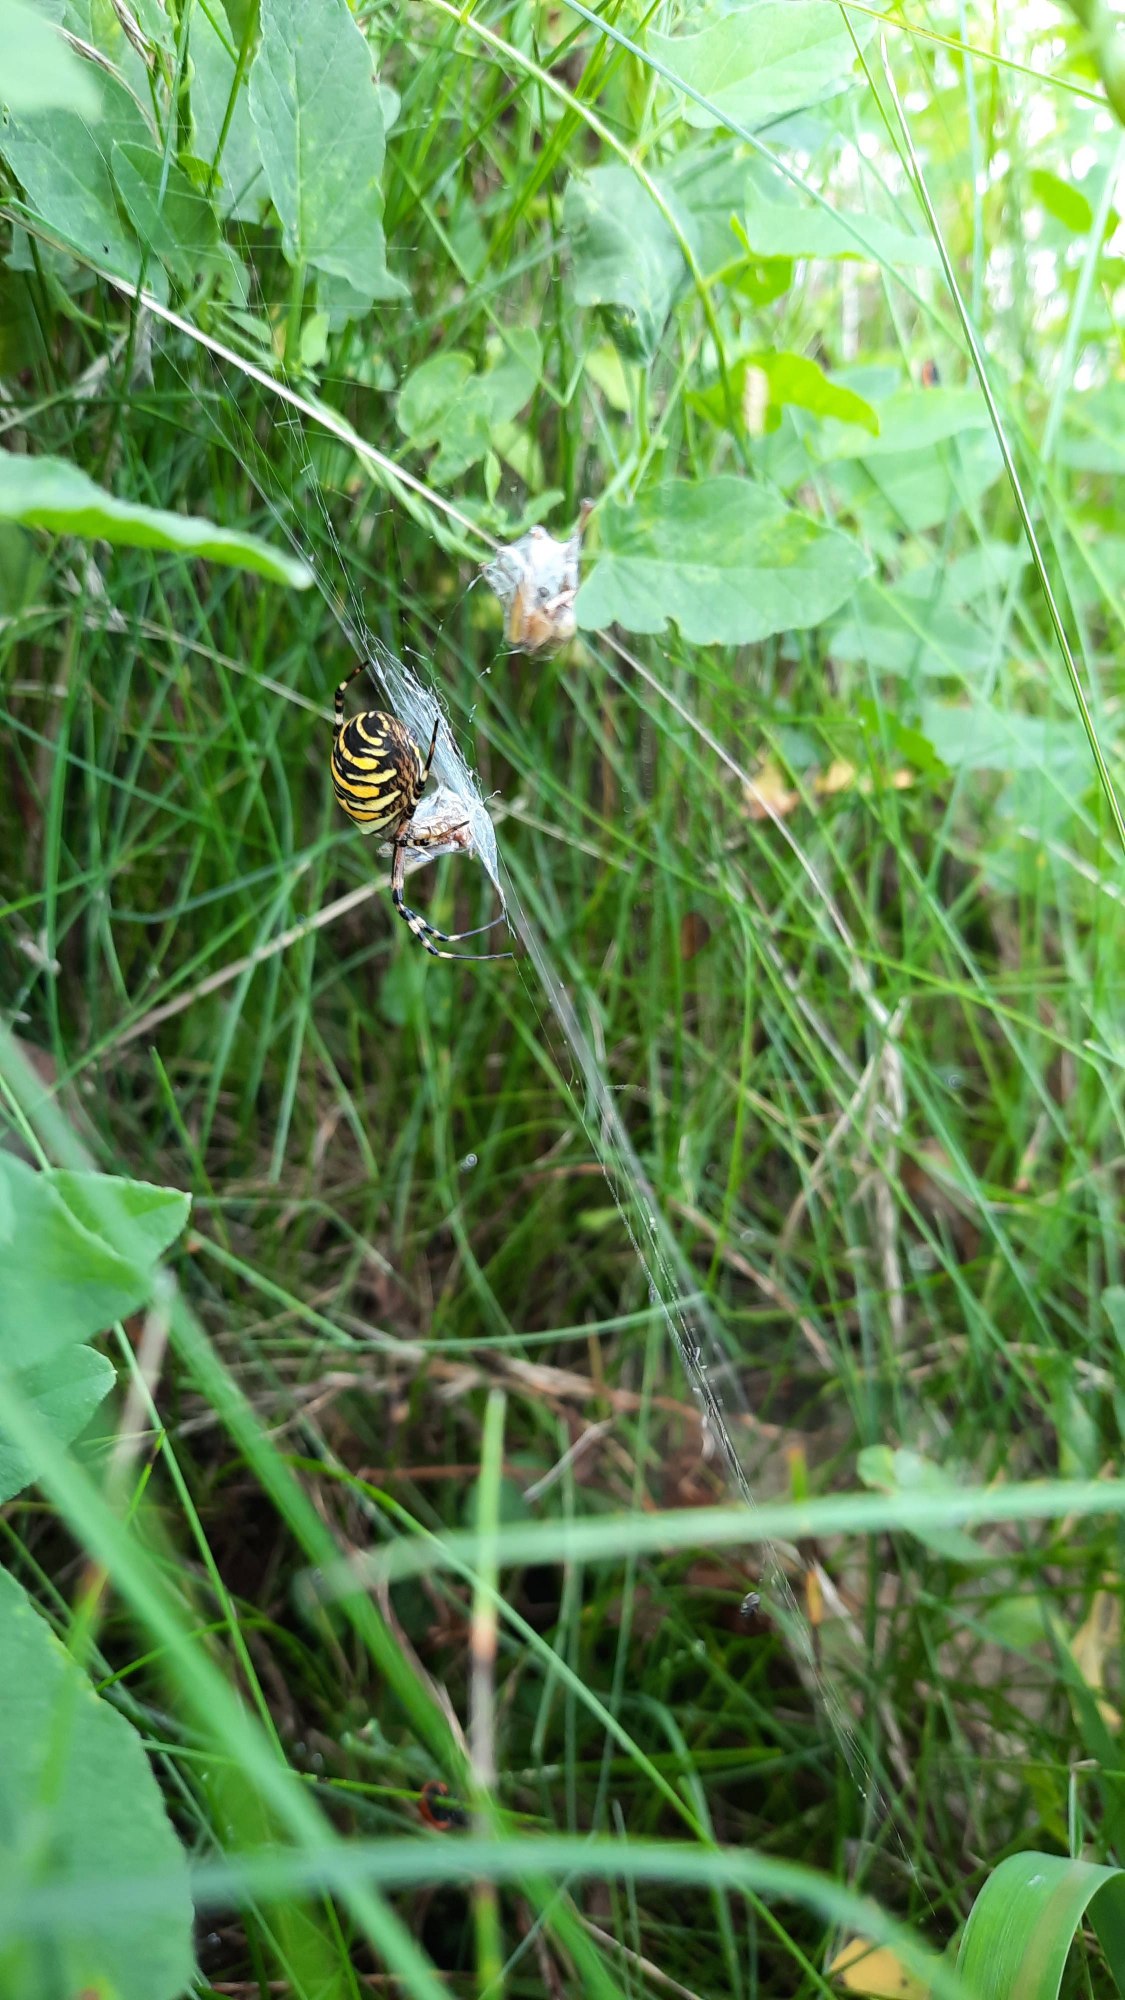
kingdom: Animalia
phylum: Arthropoda
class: Arachnida
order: Araneae
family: Araneidae
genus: Argiope
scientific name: Argiope bruennichi
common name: Hvepseedderkop
